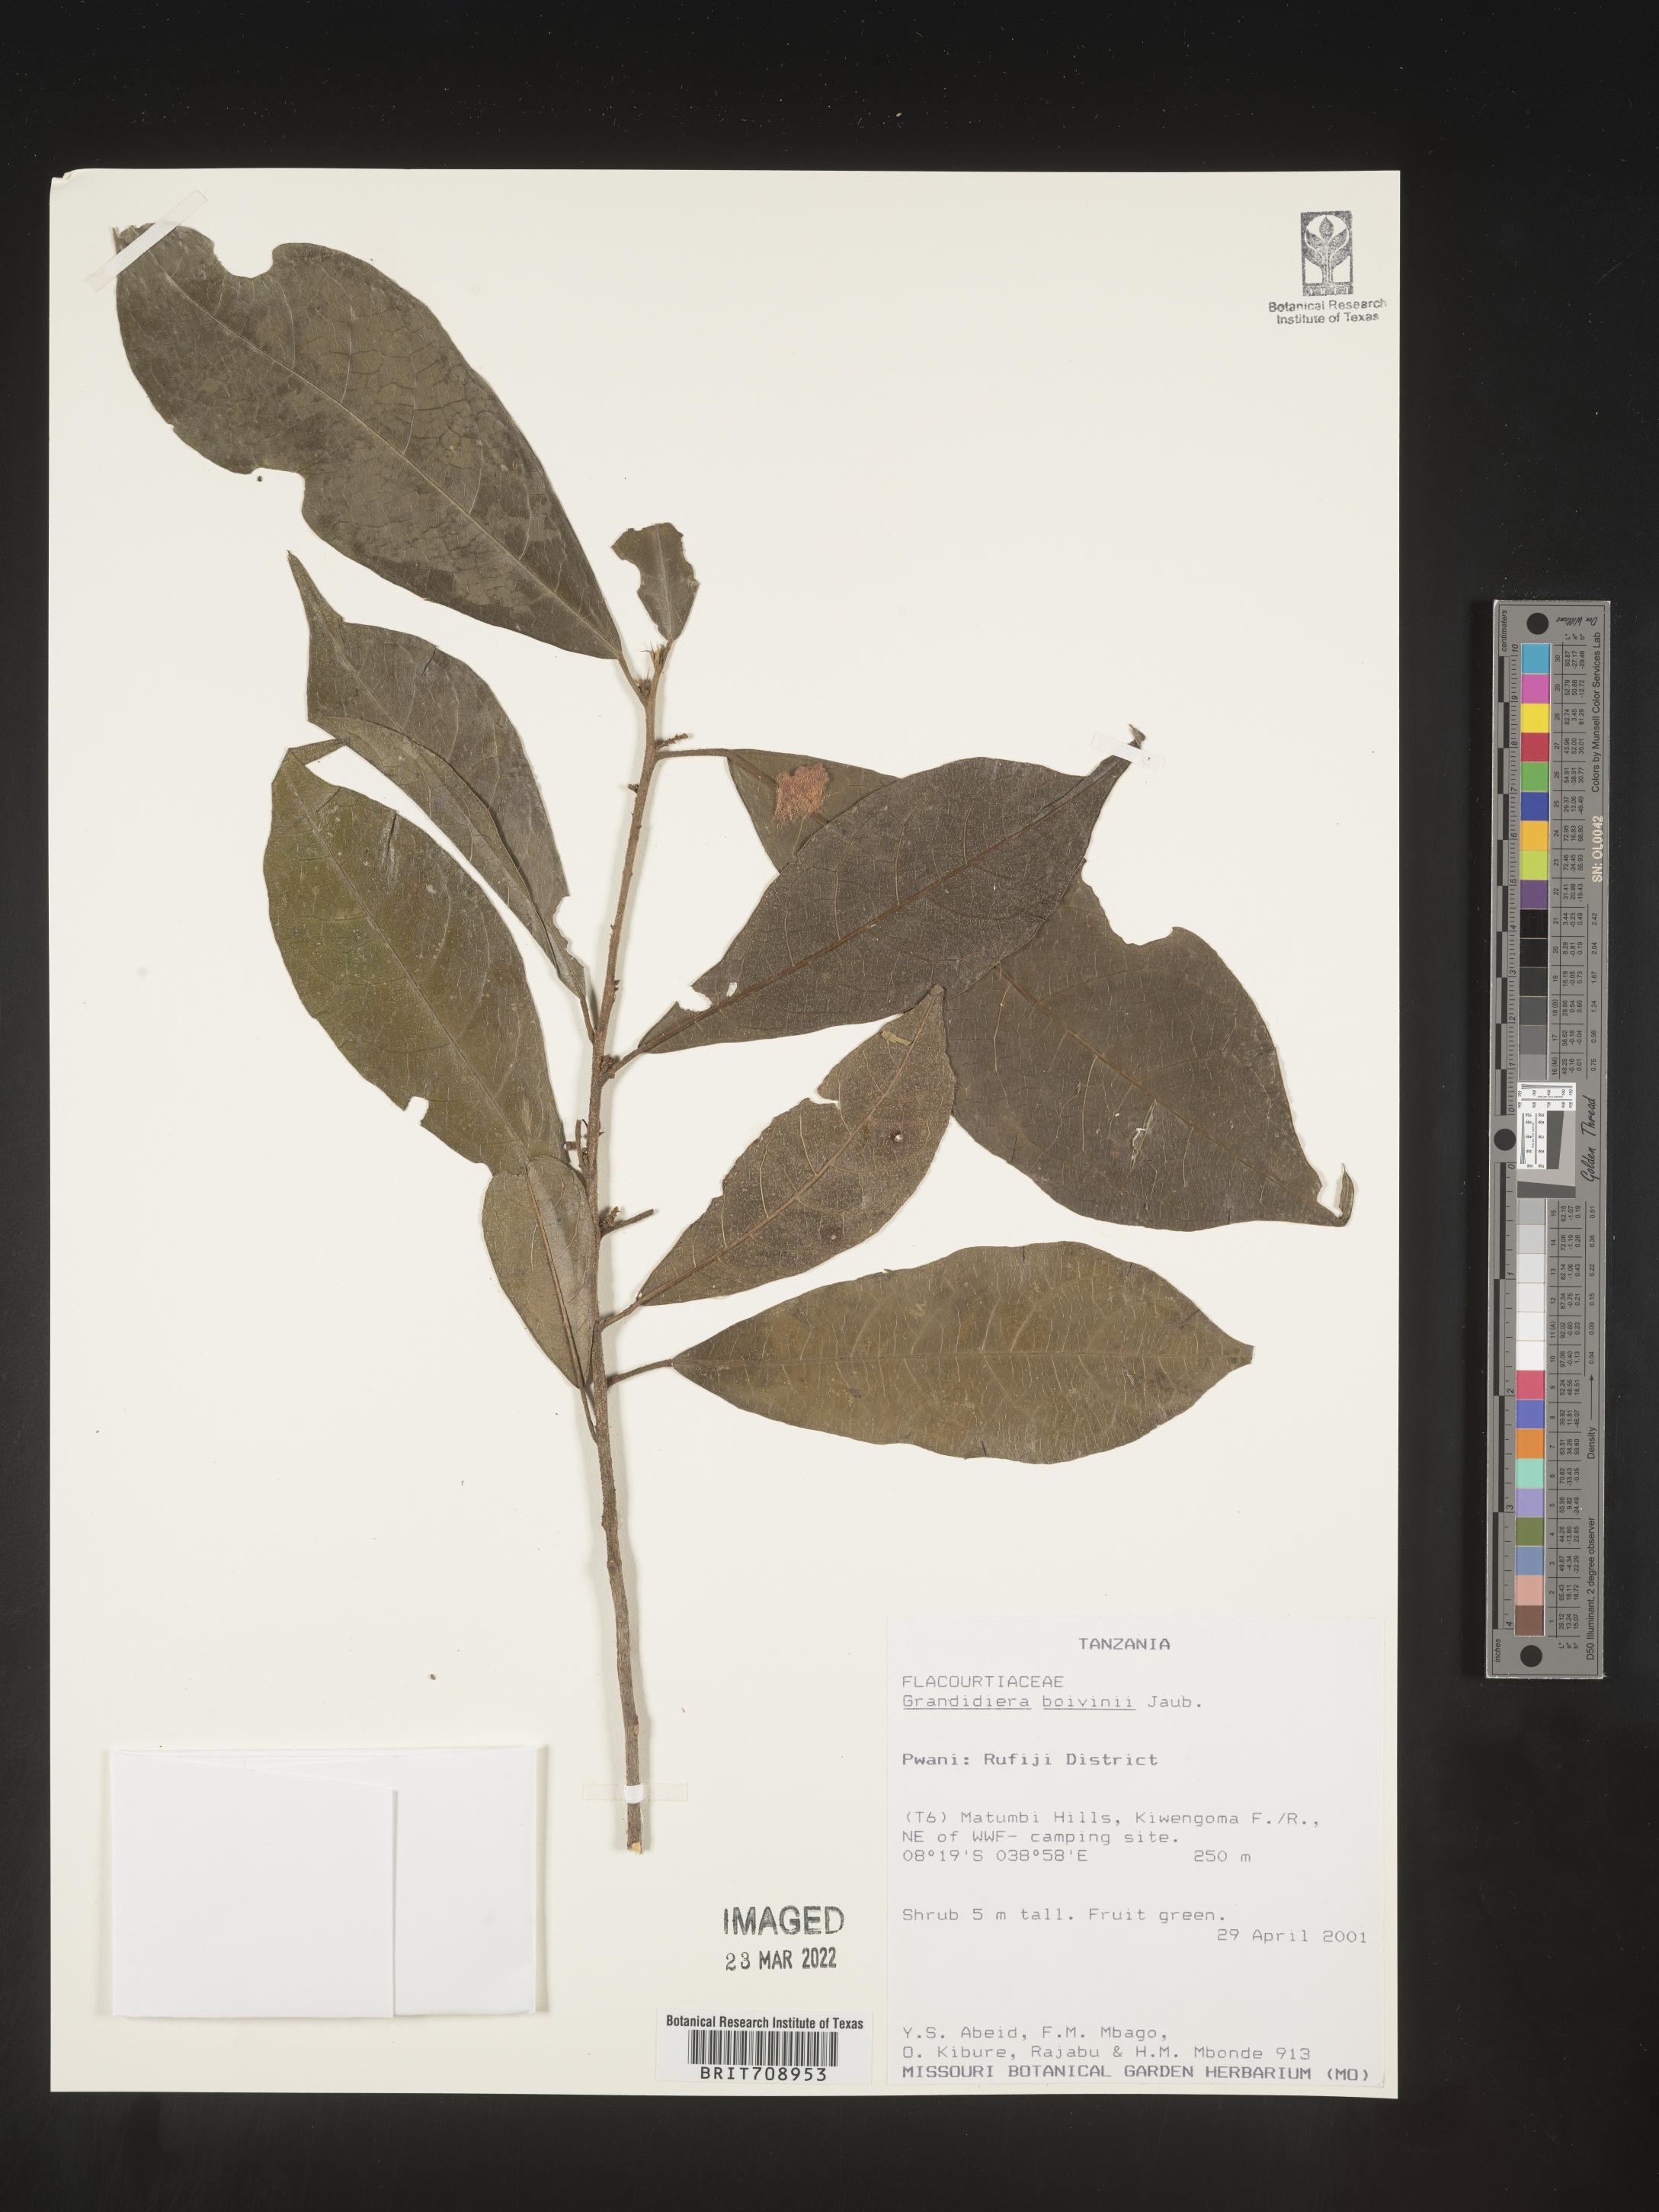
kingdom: Plantae
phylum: Tracheophyta
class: Magnoliopsida
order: Malpighiales
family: Achariaceae
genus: Grandidiera
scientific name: Grandidiera
